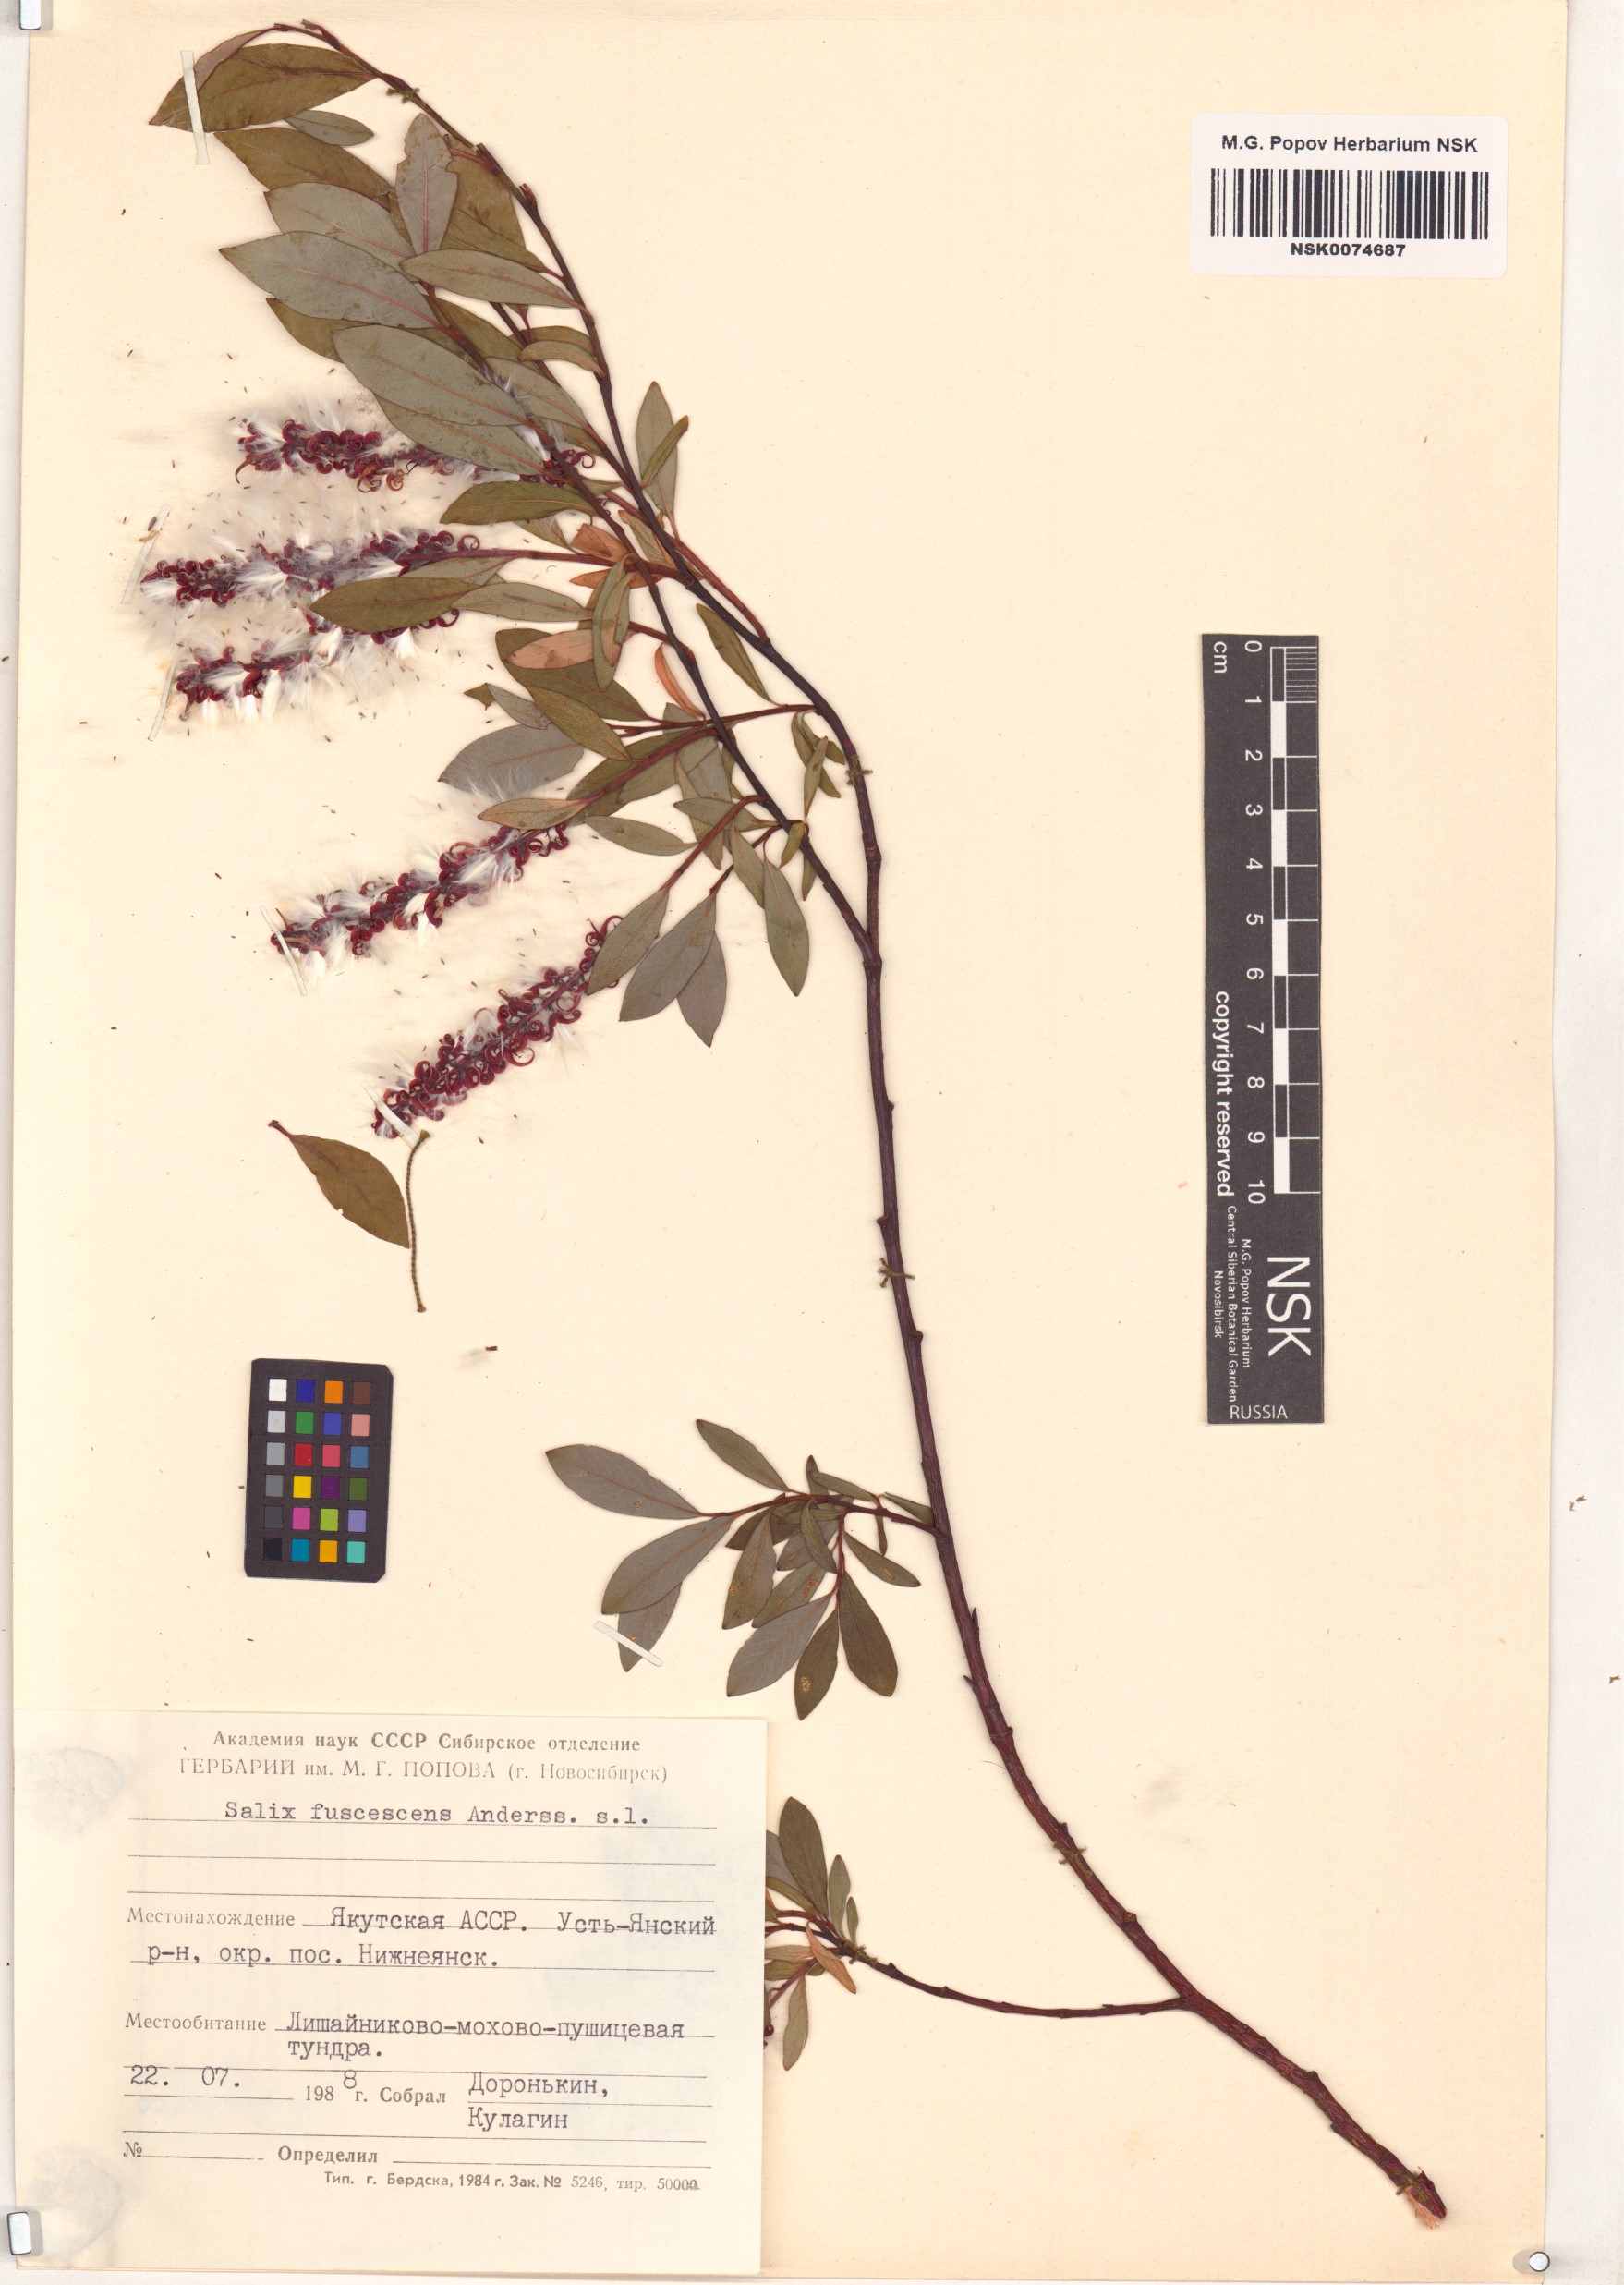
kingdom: Plantae
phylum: Tracheophyta
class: Magnoliopsida
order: Malpighiales
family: Salicaceae
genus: Salix
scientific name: Salix fuscescens
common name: Brownish willow
